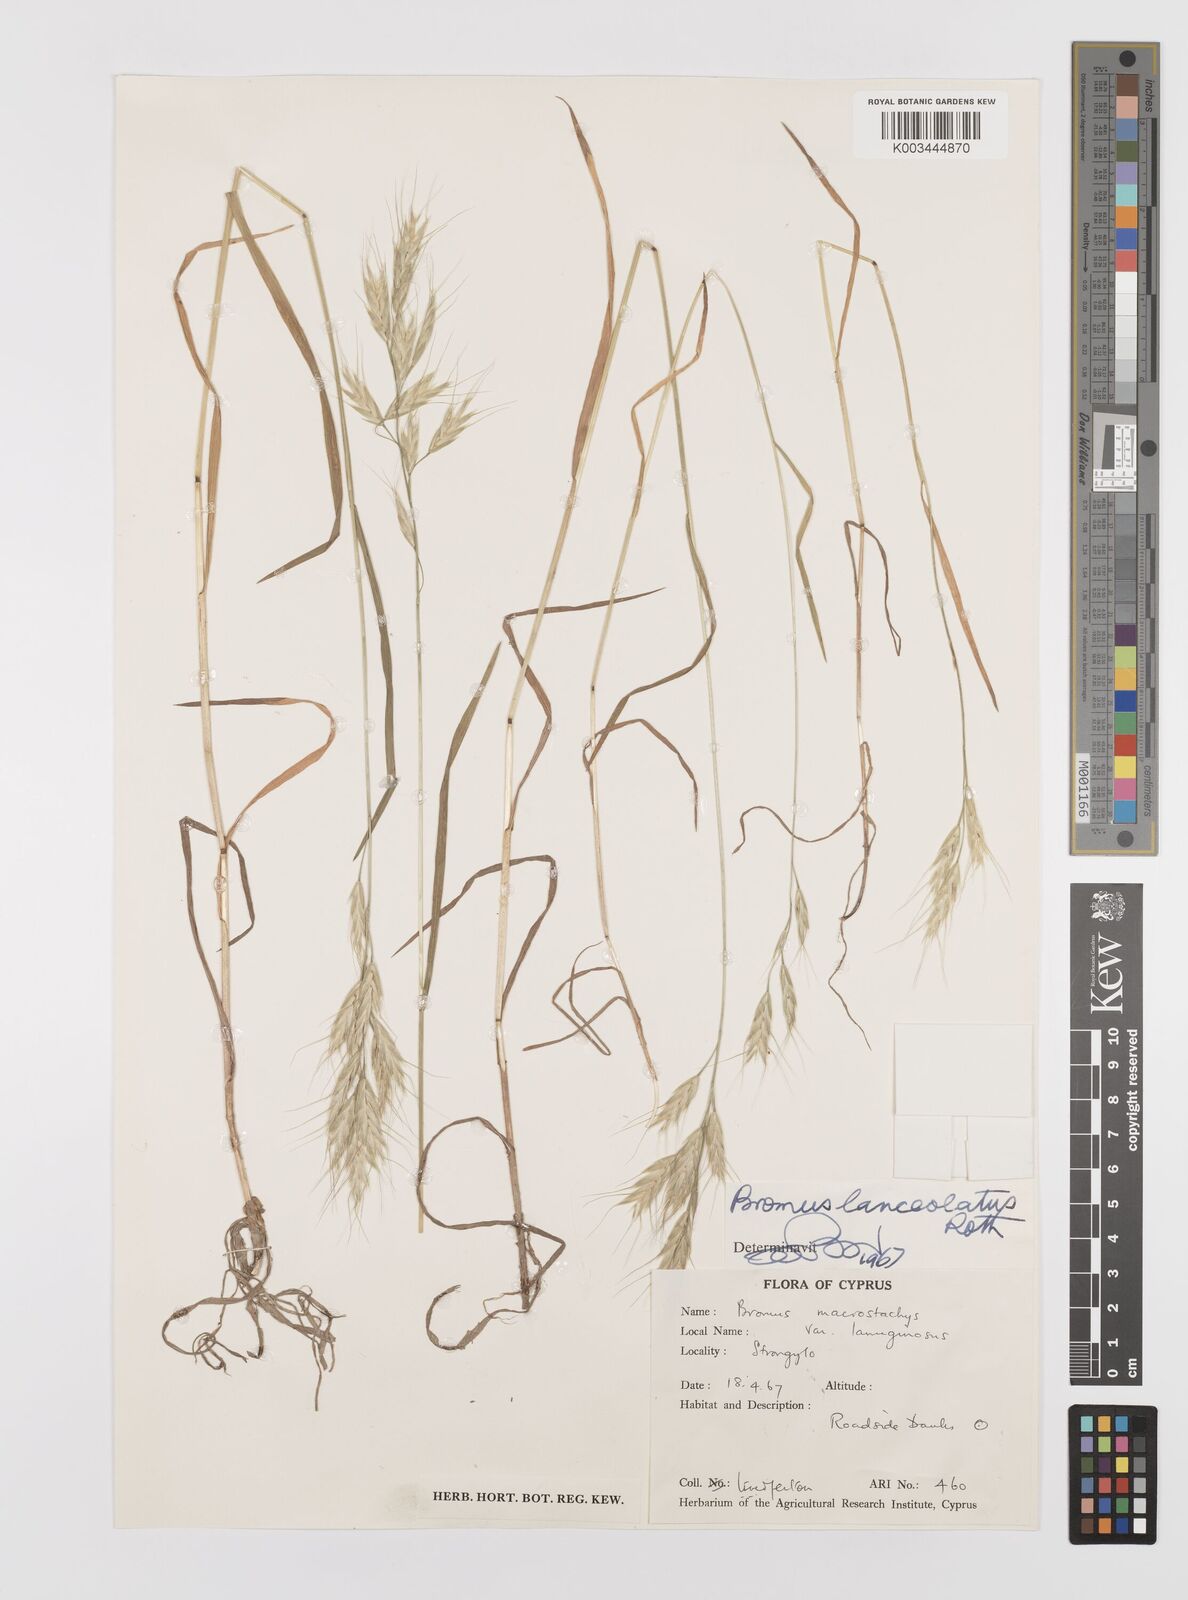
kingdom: Plantae
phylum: Tracheophyta
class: Liliopsida
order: Poales
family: Poaceae
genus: Bromus
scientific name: Bromus lanceolatus
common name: Mediterranean brome
